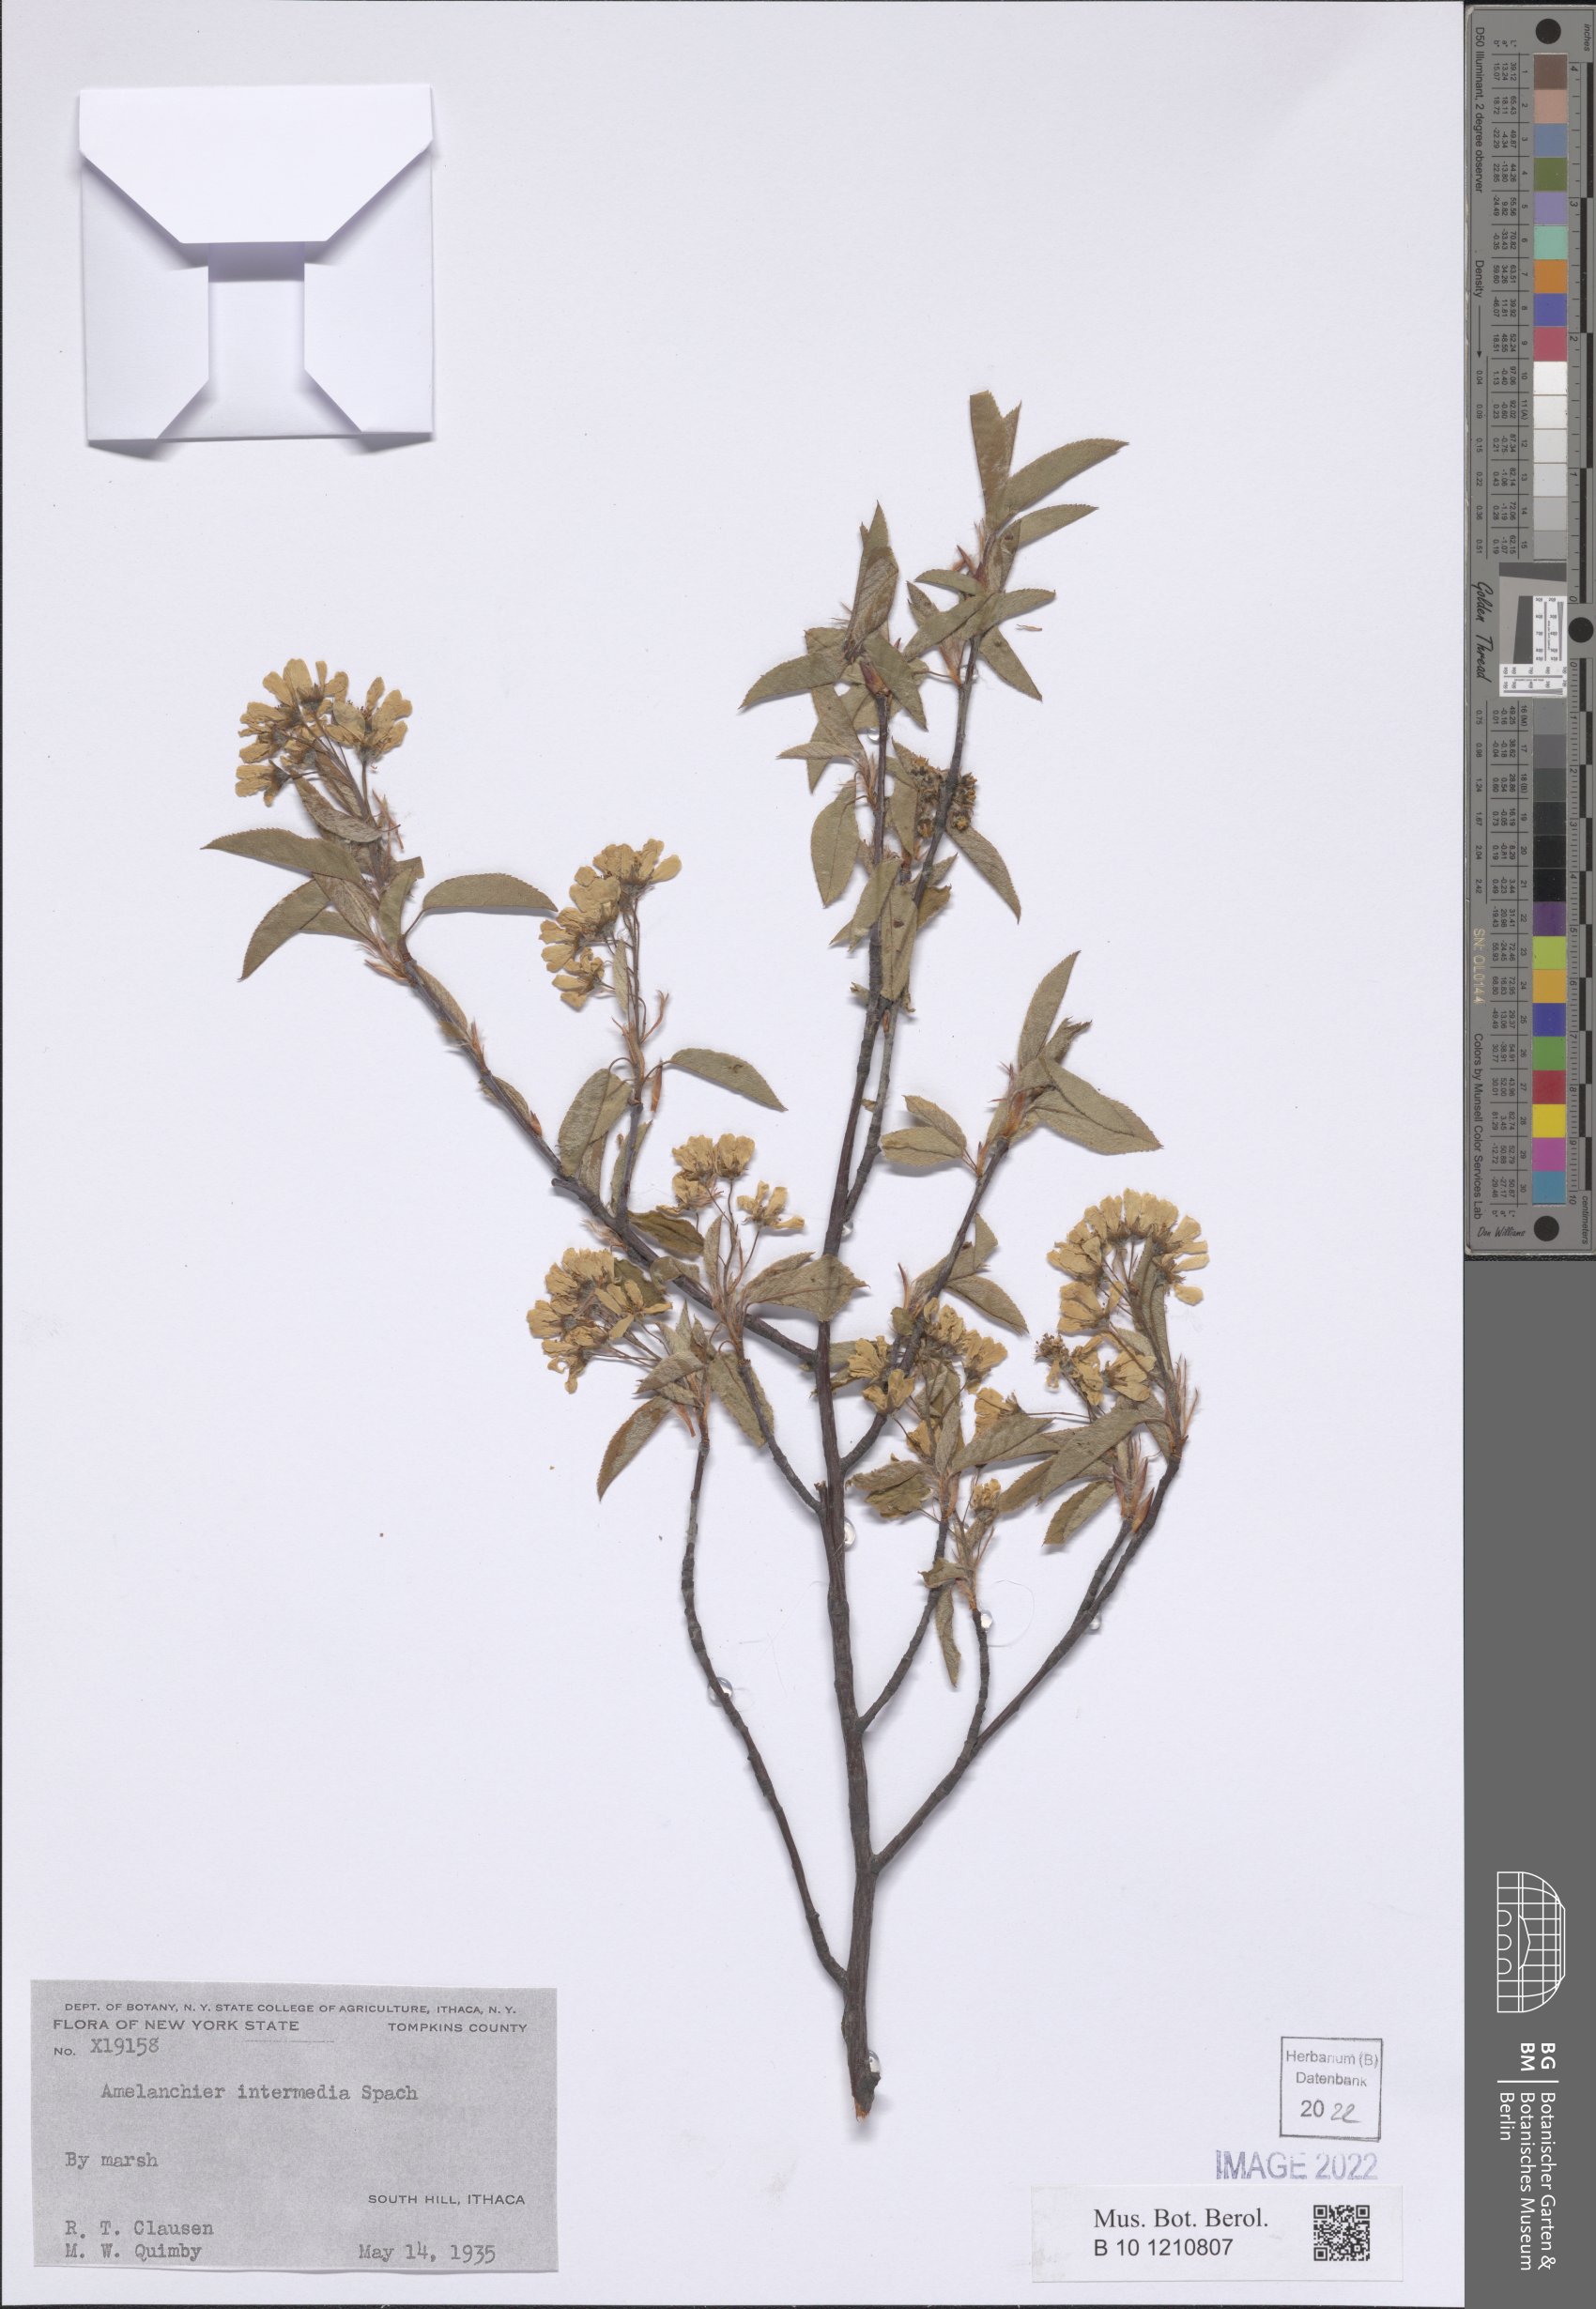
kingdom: Plantae
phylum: Tracheophyta
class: Magnoliopsida
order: Rosales
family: Rosaceae
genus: Amelanchier
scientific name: Amelanchier intermedia
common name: Intermediate shadbush
